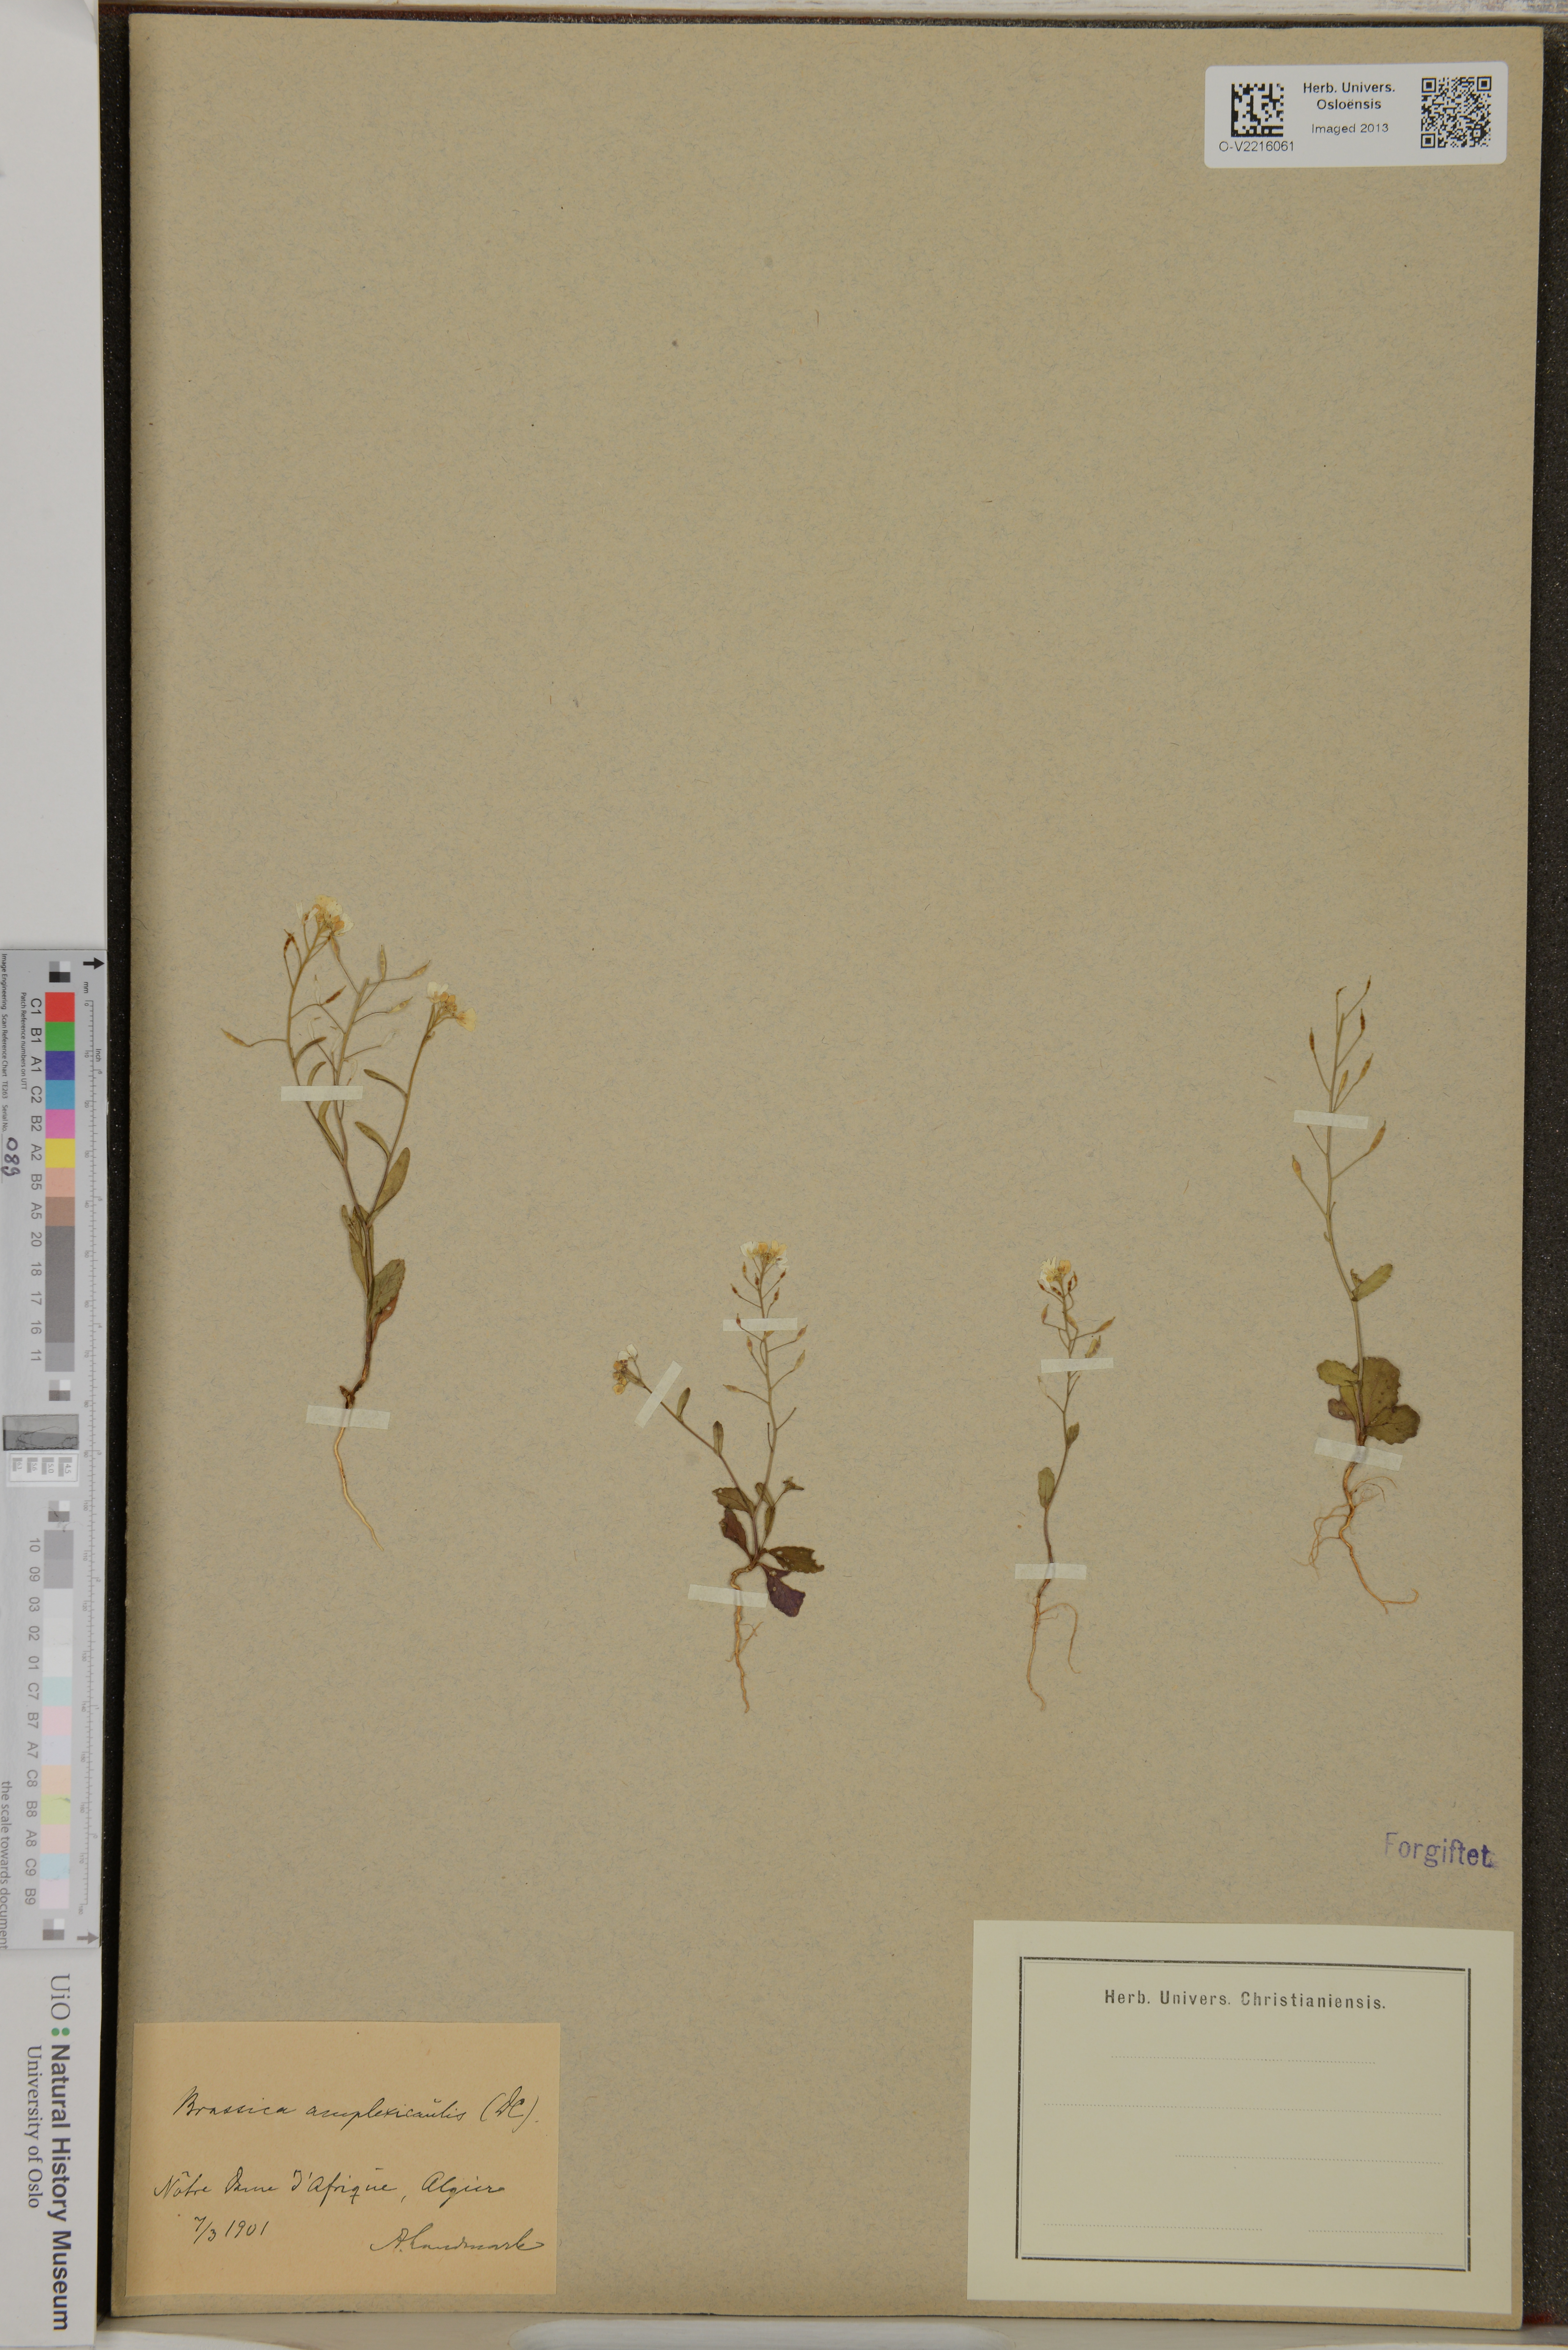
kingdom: Plantae
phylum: Tracheophyta
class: Magnoliopsida
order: Brassicales
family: Brassicaceae
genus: Brassica
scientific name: Brassica
